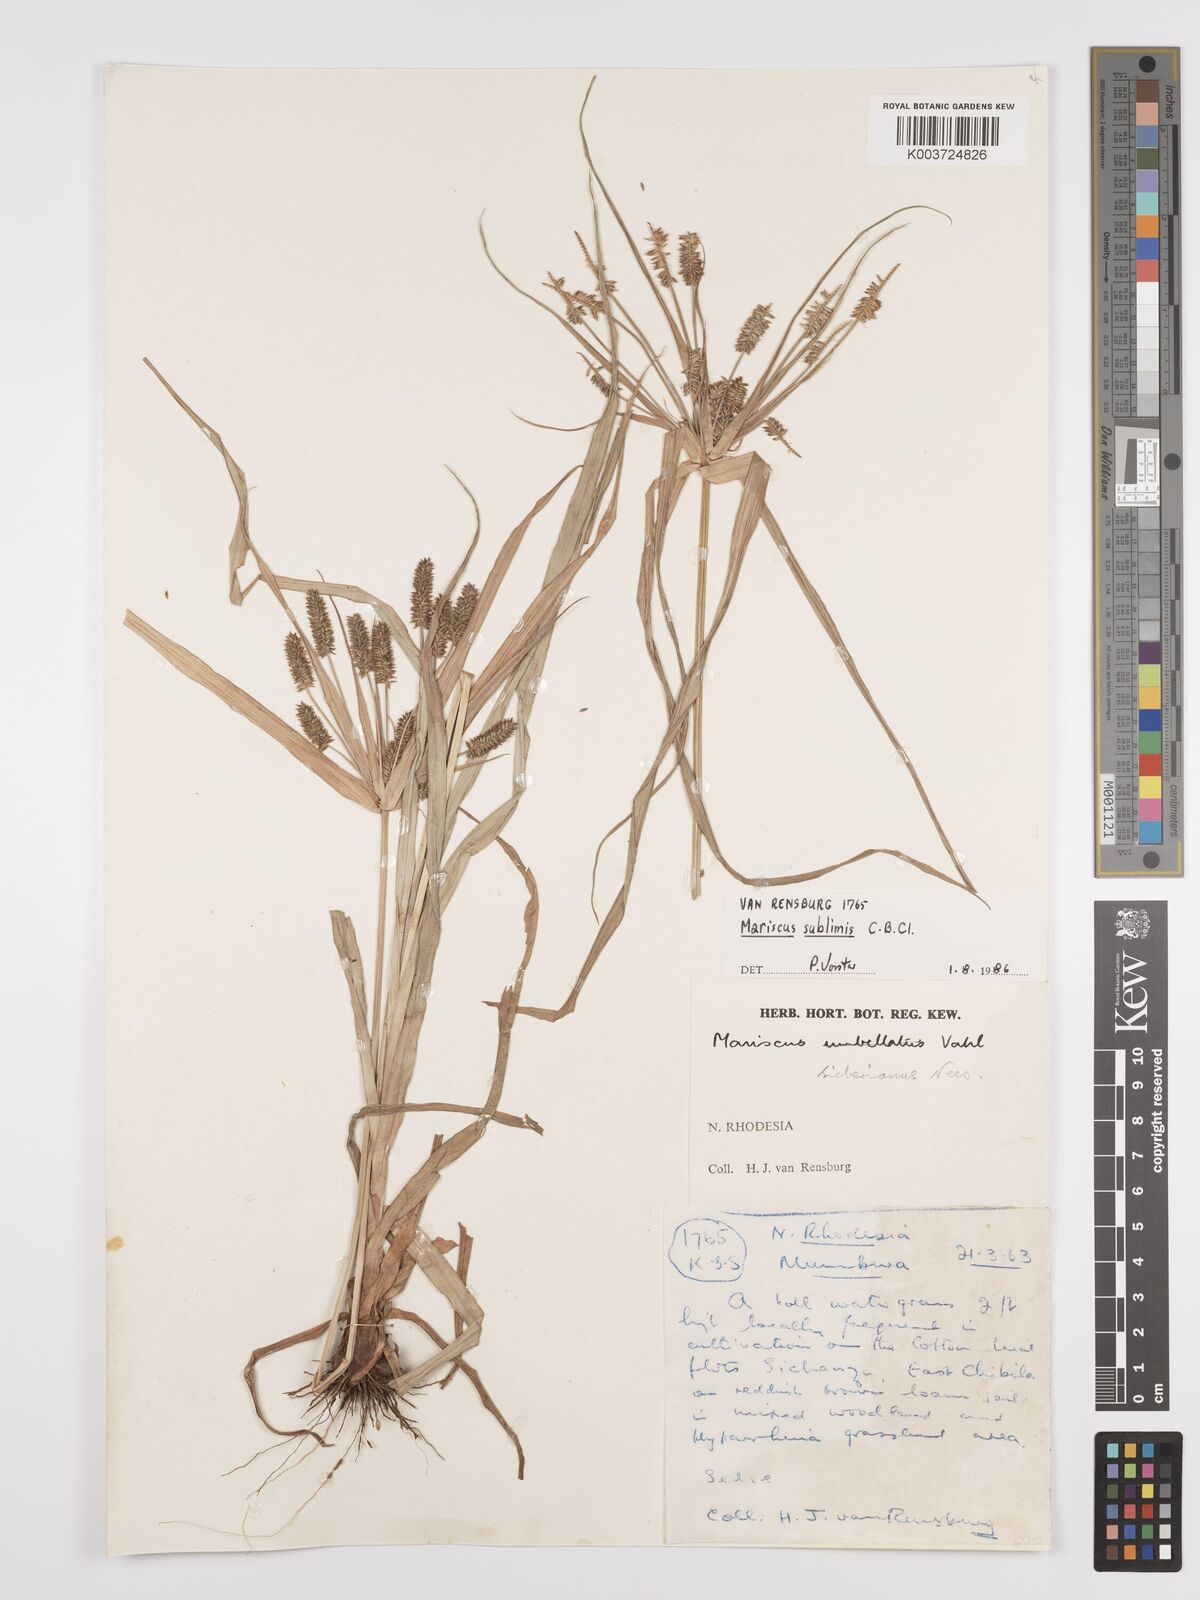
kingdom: Plantae
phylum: Tracheophyta
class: Liliopsida
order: Poales
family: Cyperaceae
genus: Cyperus
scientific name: Cyperus cyperoides
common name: Pacific island flat sedge
